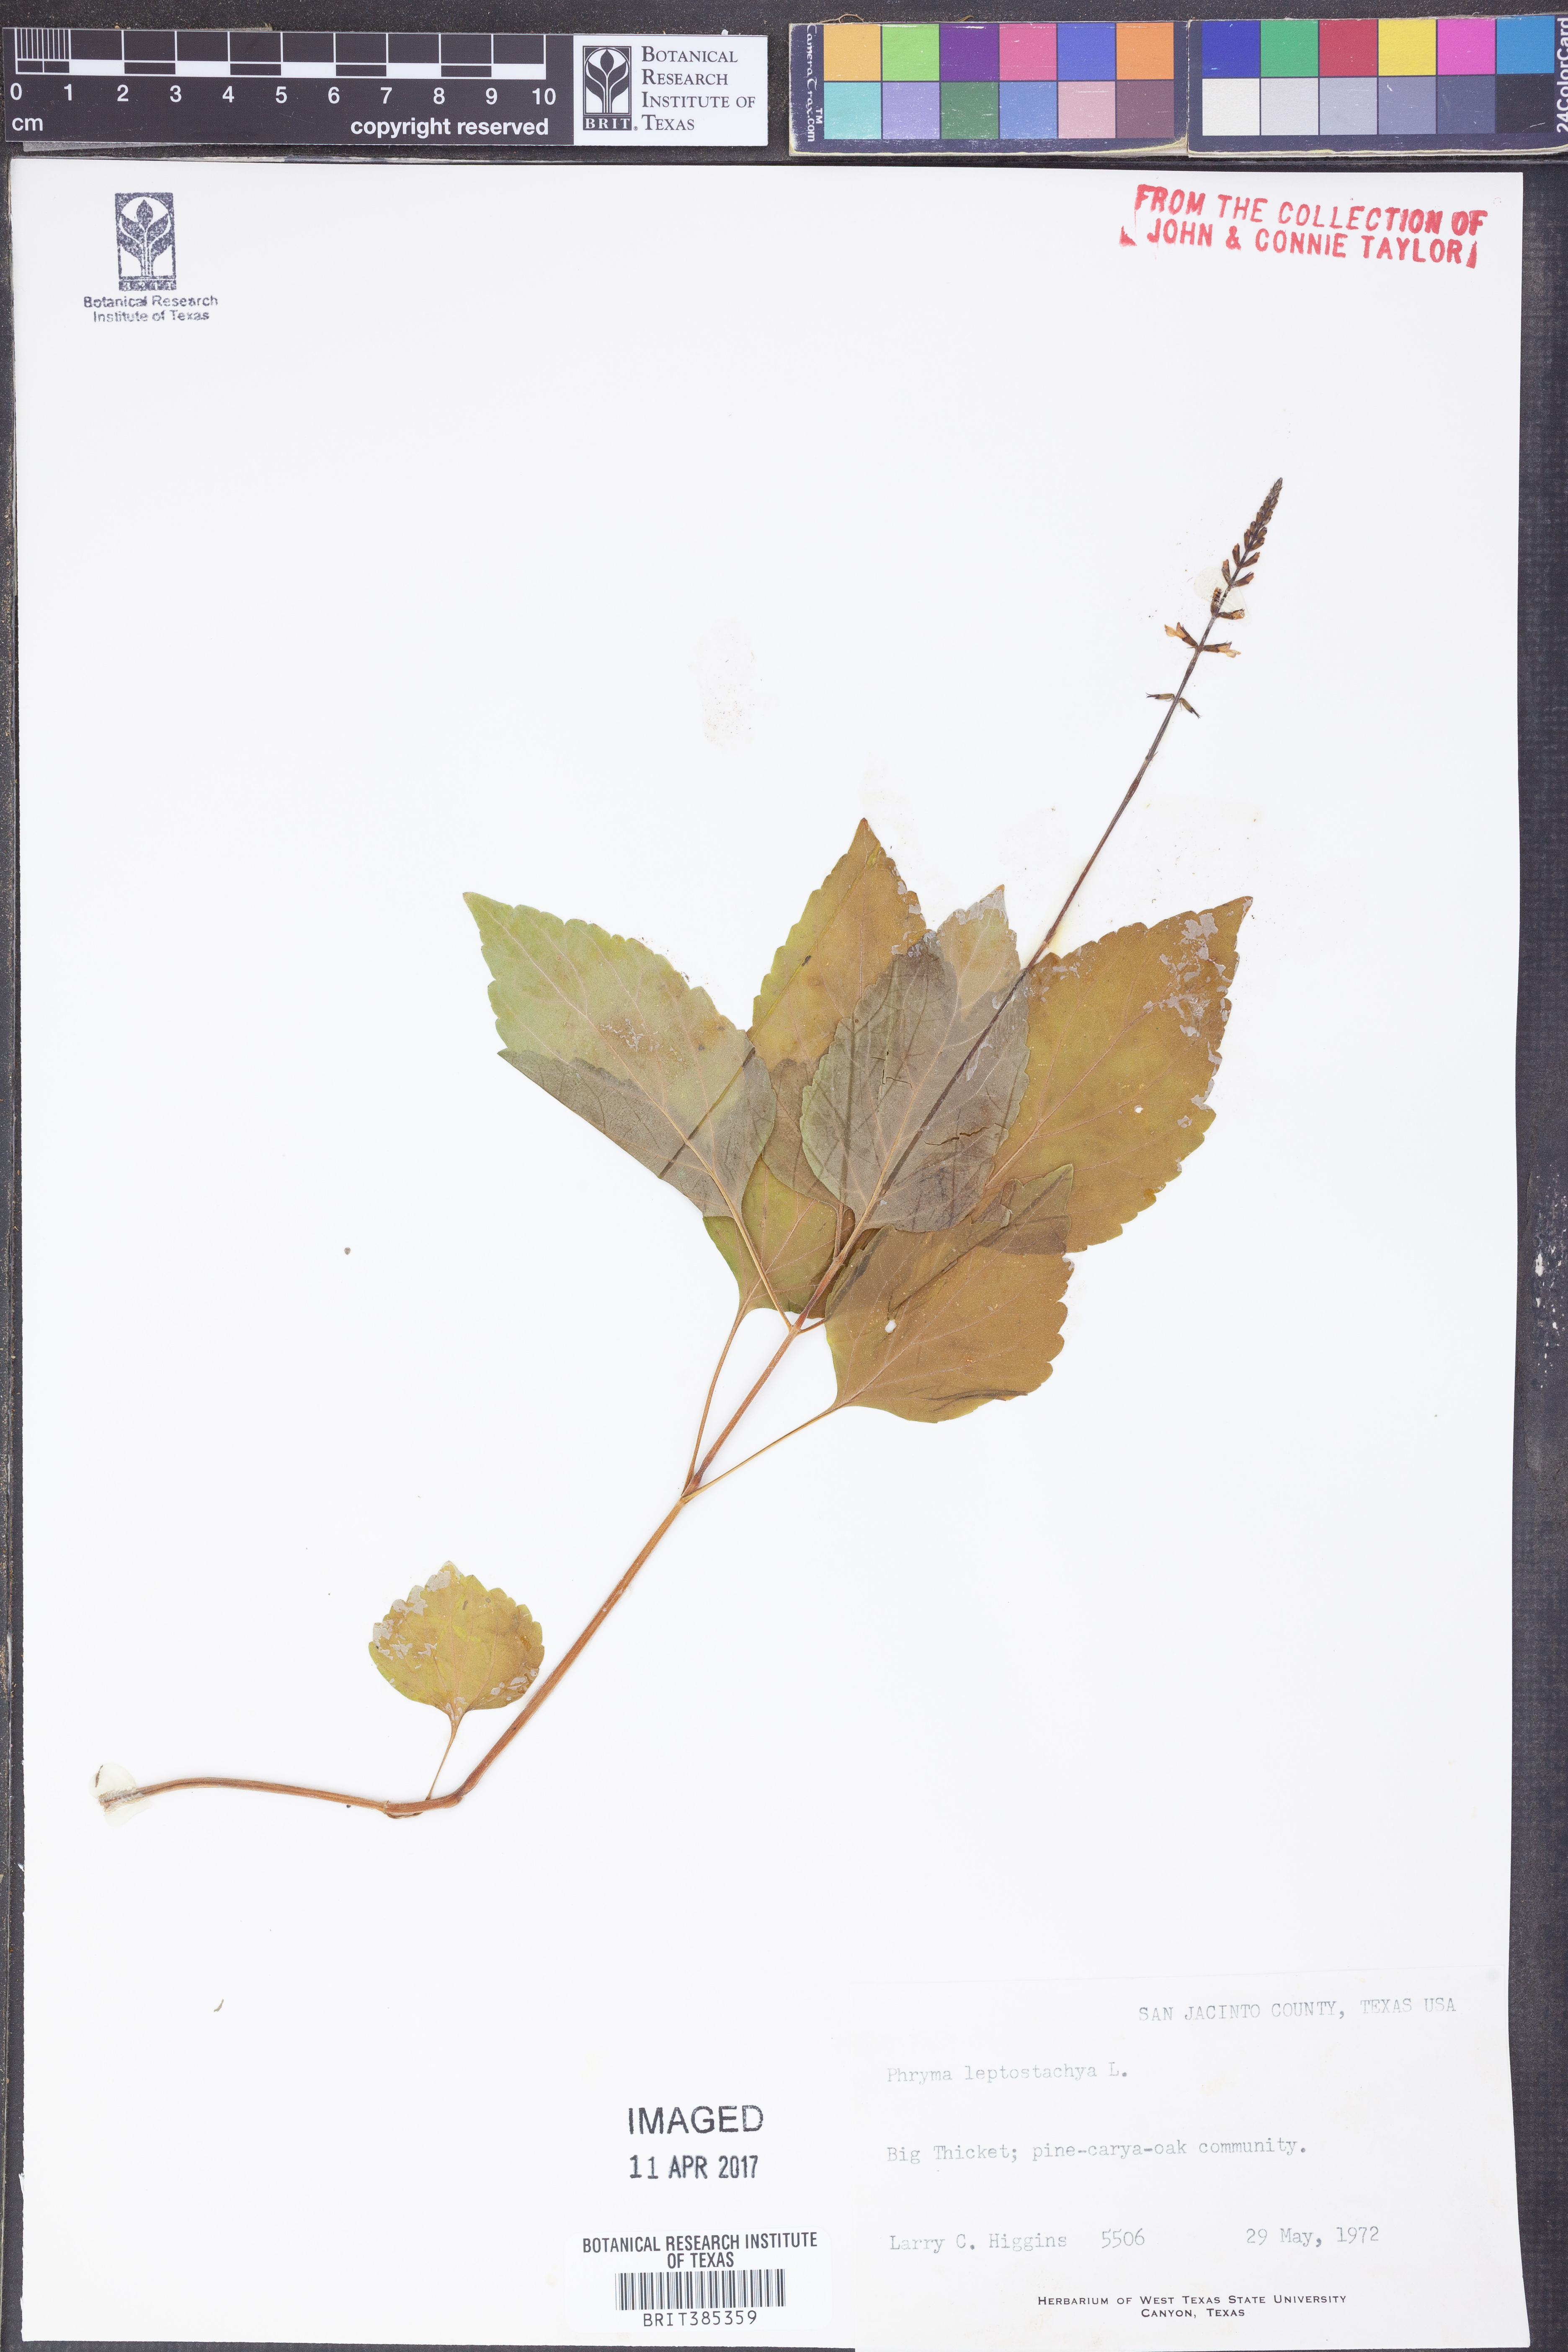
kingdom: Plantae
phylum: Tracheophyta
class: Magnoliopsida
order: Lamiales
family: Phrymaceae
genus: Phryma
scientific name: Phryma leptostachya
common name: American lopseed
